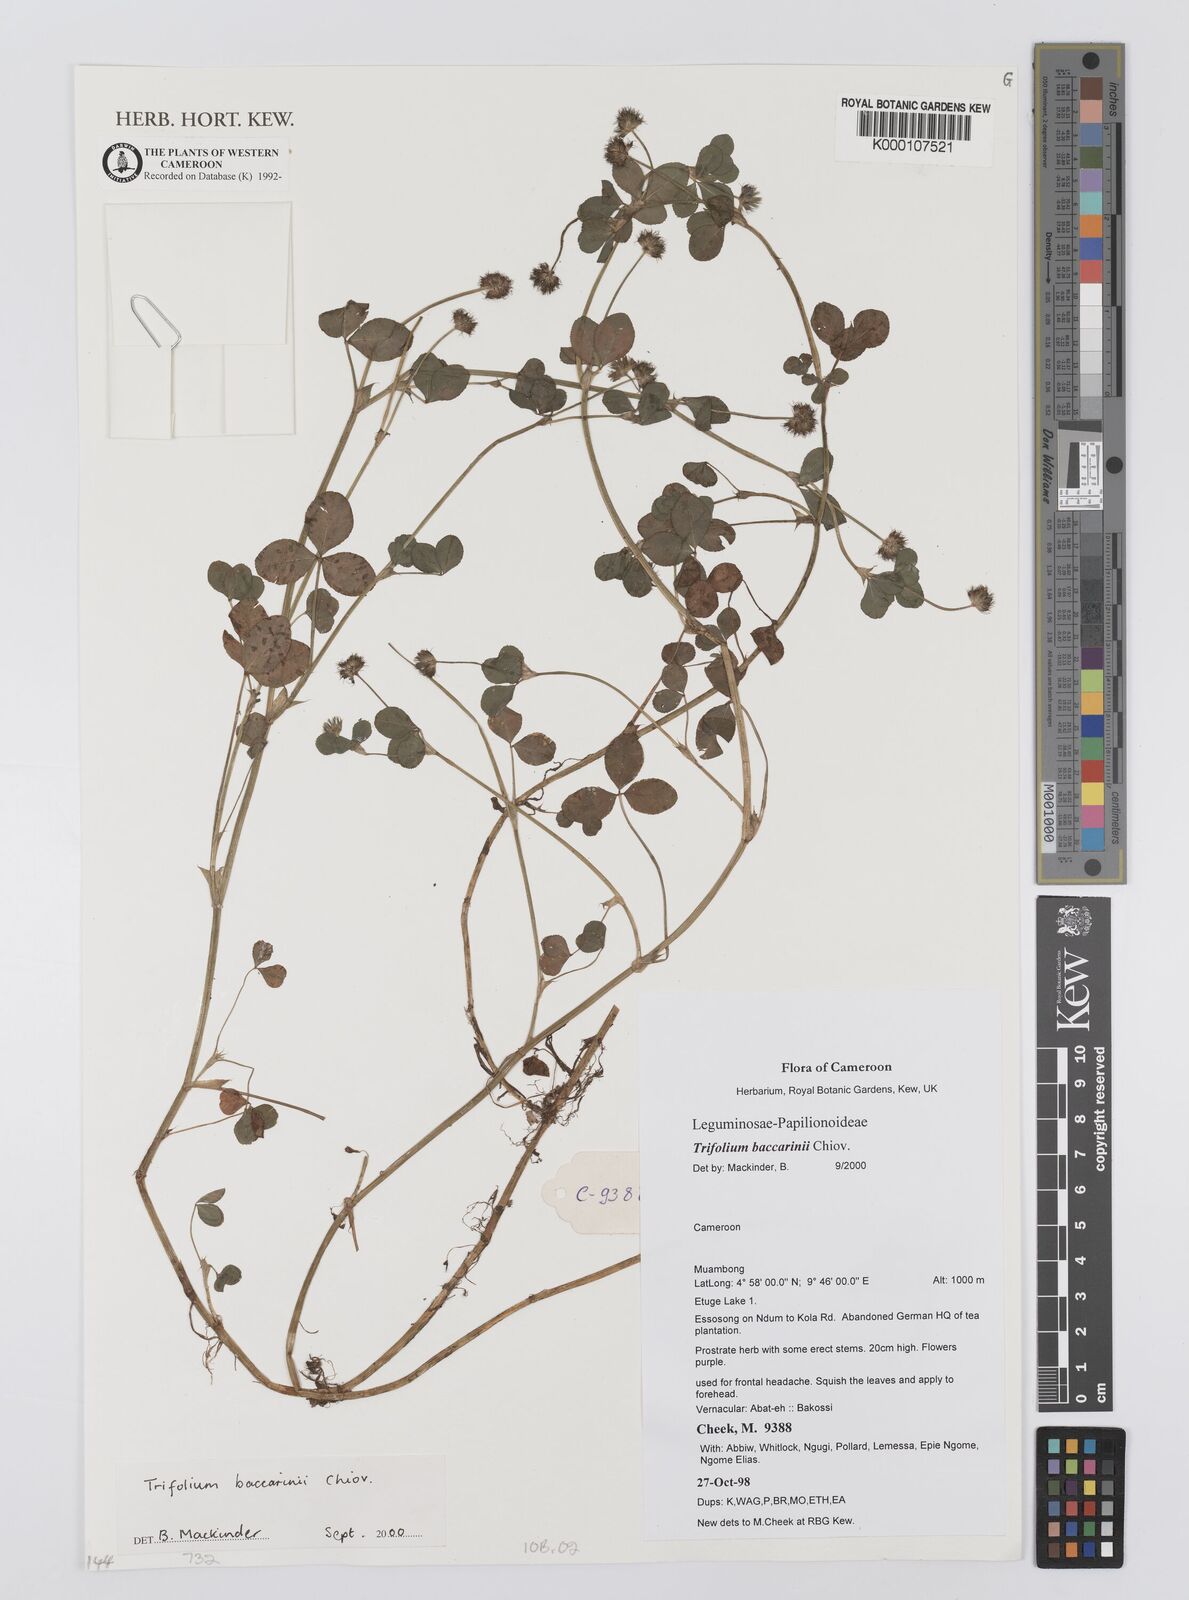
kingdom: Plantae
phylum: Tracheophyta
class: Magnoliopsida
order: Fabales
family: Fabaceae
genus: Trifolium
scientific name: Trifolium baccarinii
